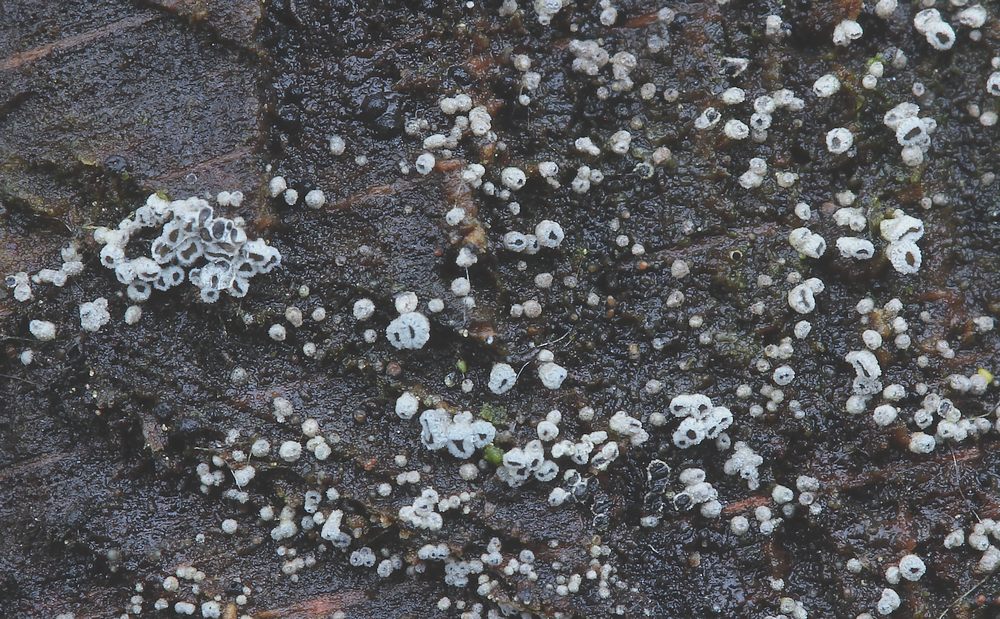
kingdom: Fungi
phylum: Ascomycota
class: Leotiomycetes
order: Helotiales
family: Lachnaceae
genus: Proliferodiscus
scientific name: Proliferodiscus pulveraceus
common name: askegrå frynseskive
